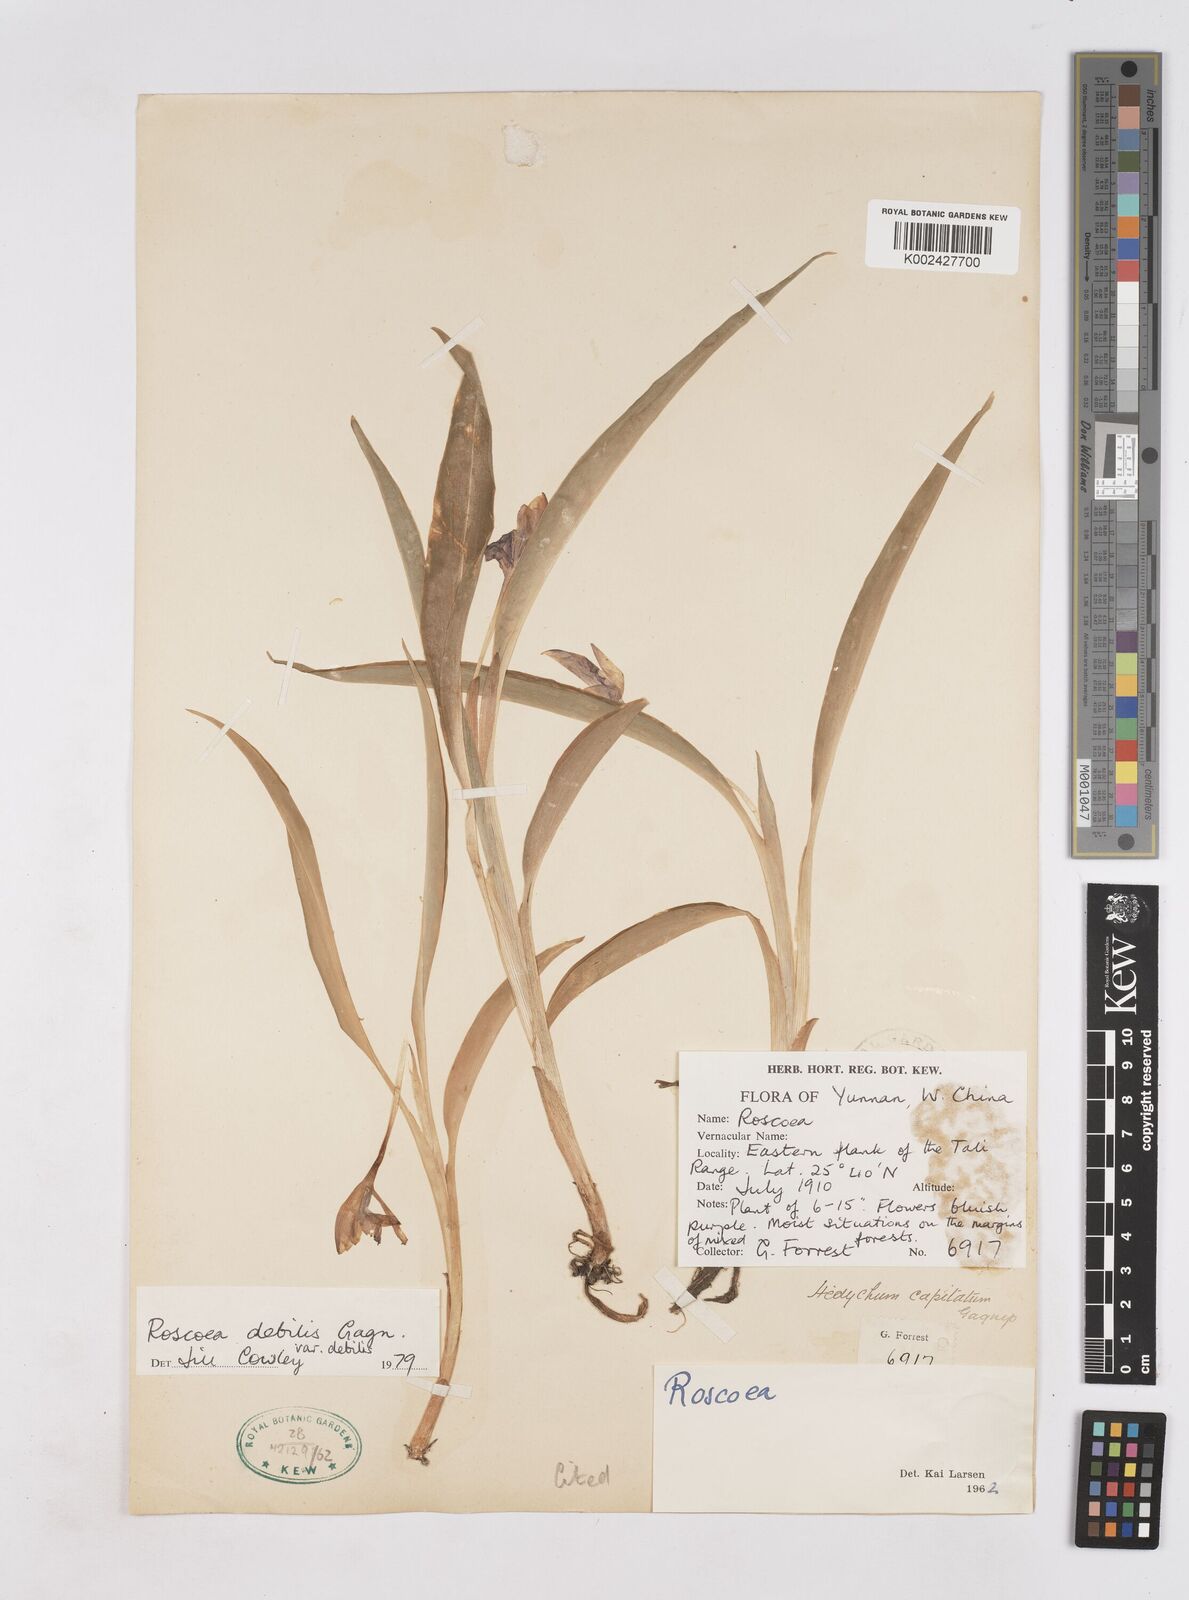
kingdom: Plantae
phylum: Tracheophyta
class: Liliopsida
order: Zingiberales
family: Zingiberaceae
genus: Roscoea
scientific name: Roscoea debilis
